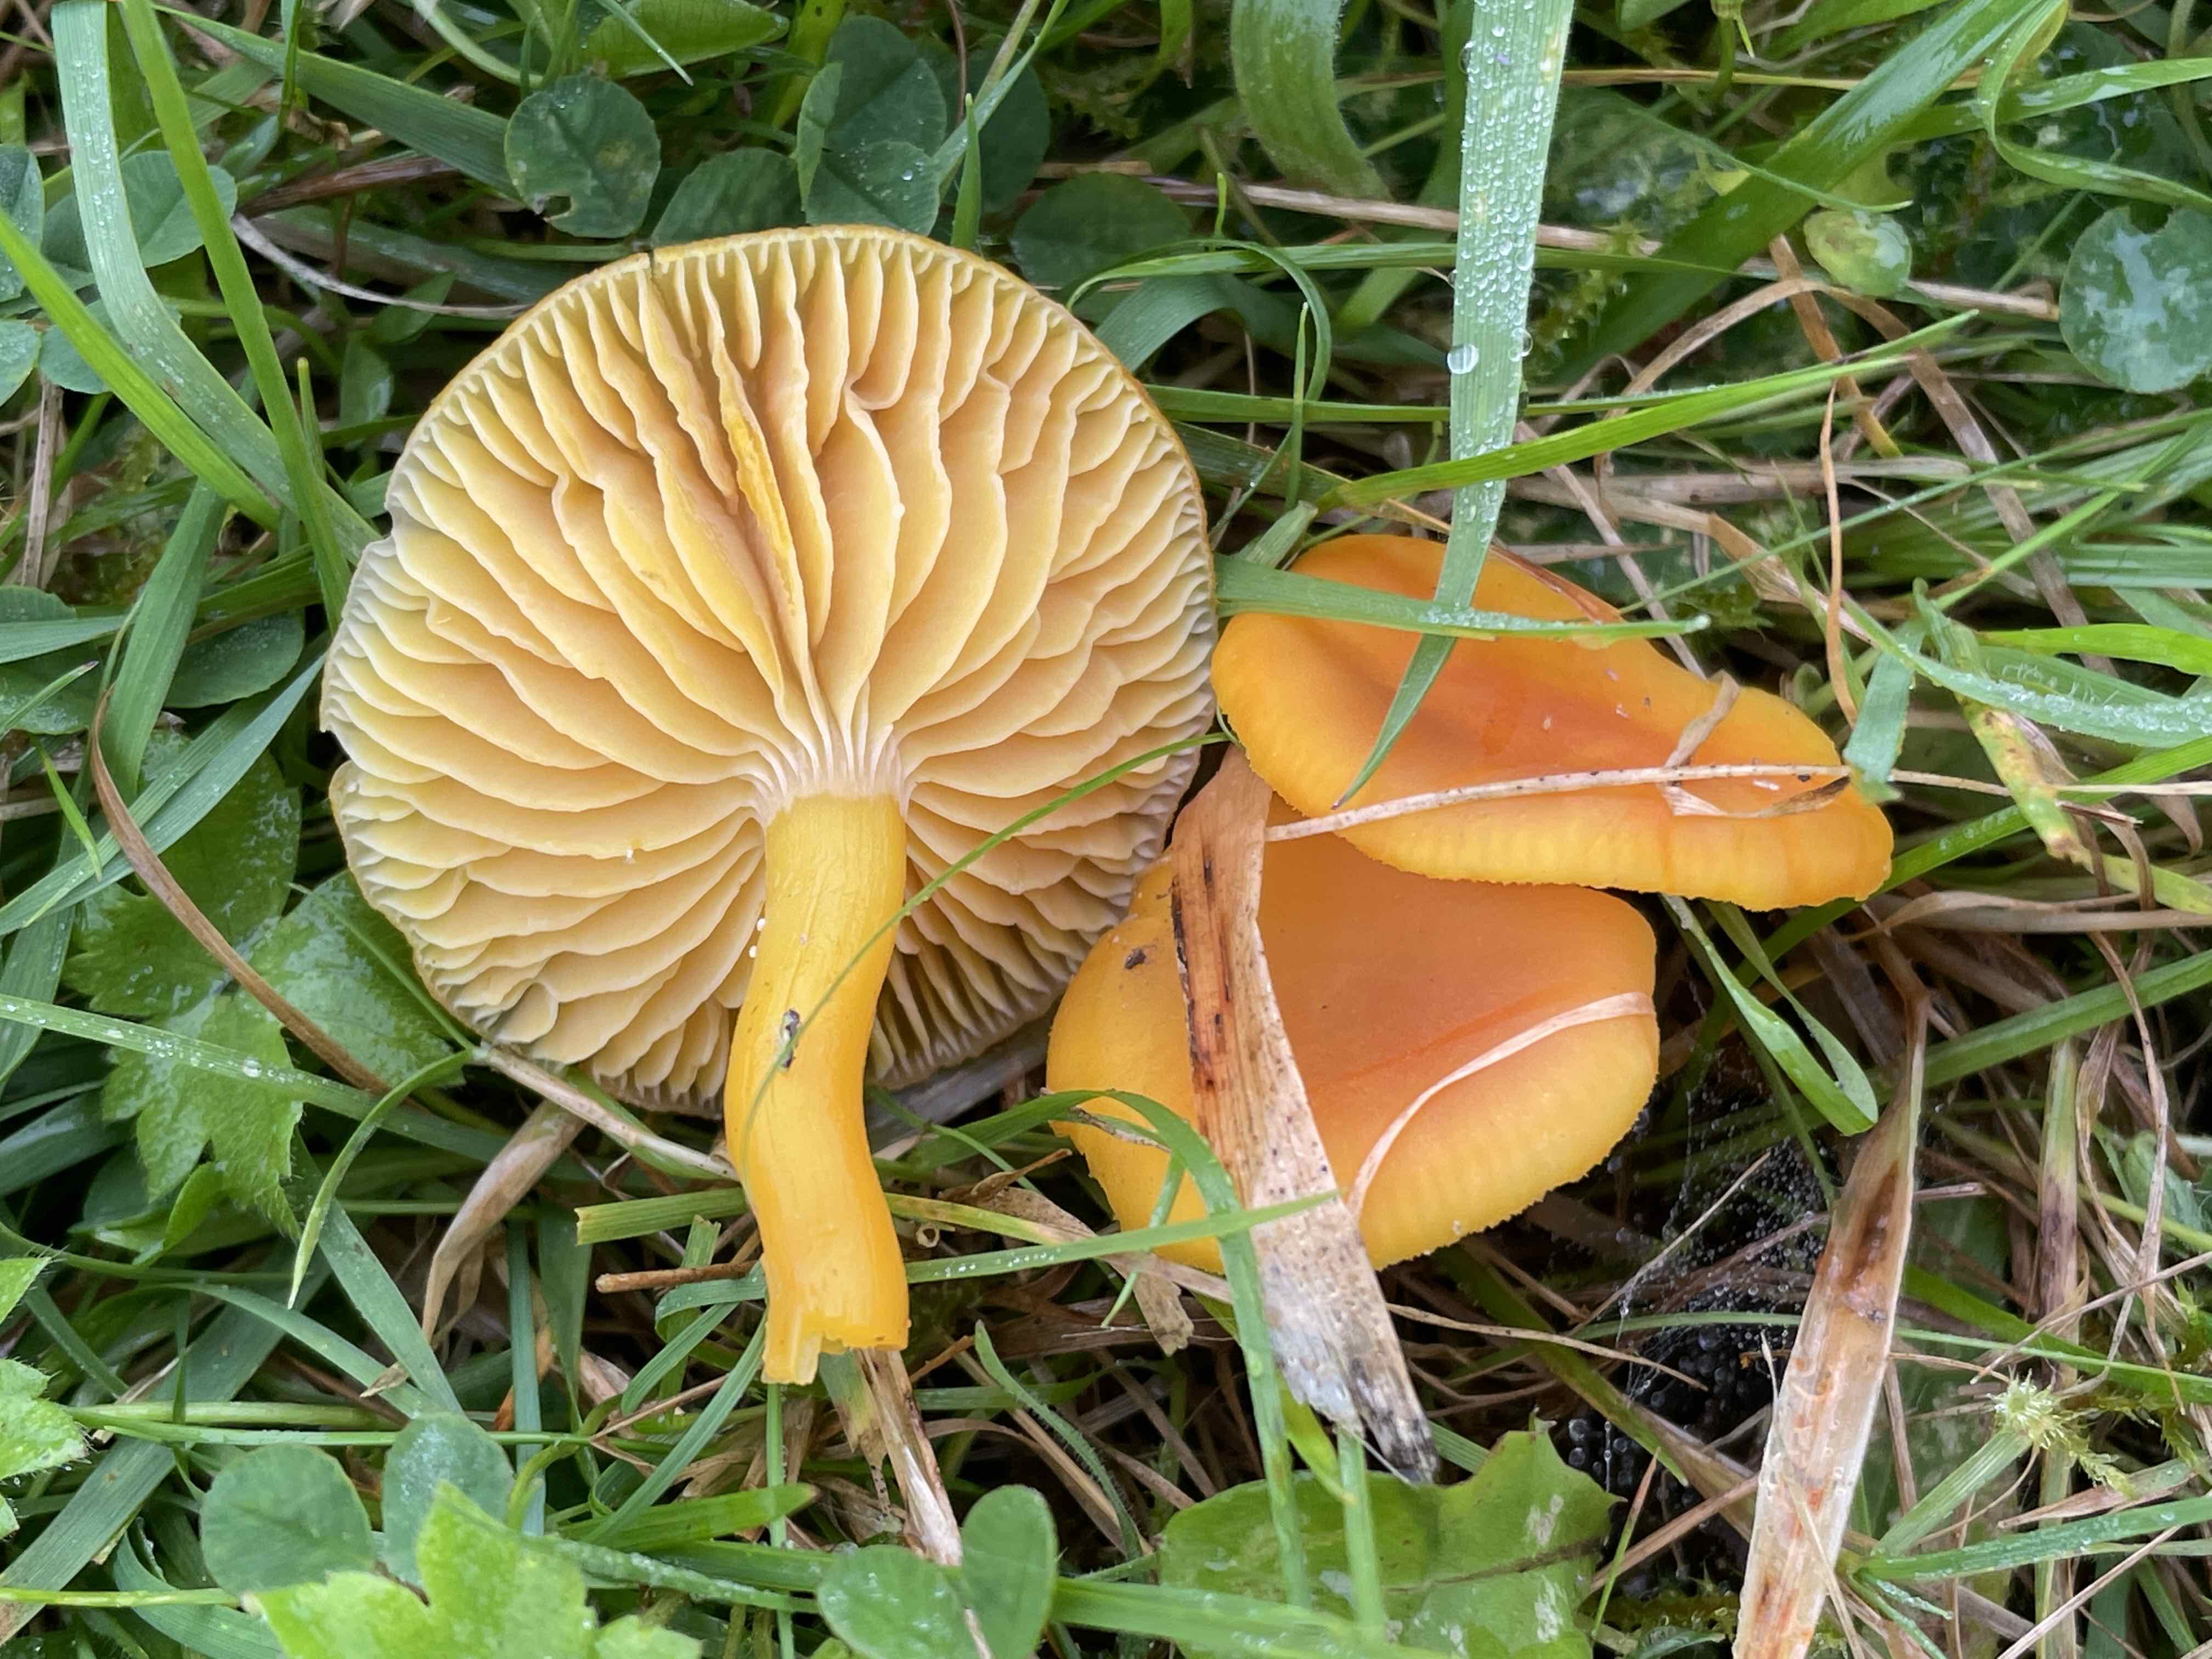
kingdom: Fungi
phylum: Basidiomycota
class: Agaricomycetes
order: Agaricales
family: Hygrophoraceae
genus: Hygrocybe
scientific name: Hygrocybe chlorophana
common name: gul vokshat
